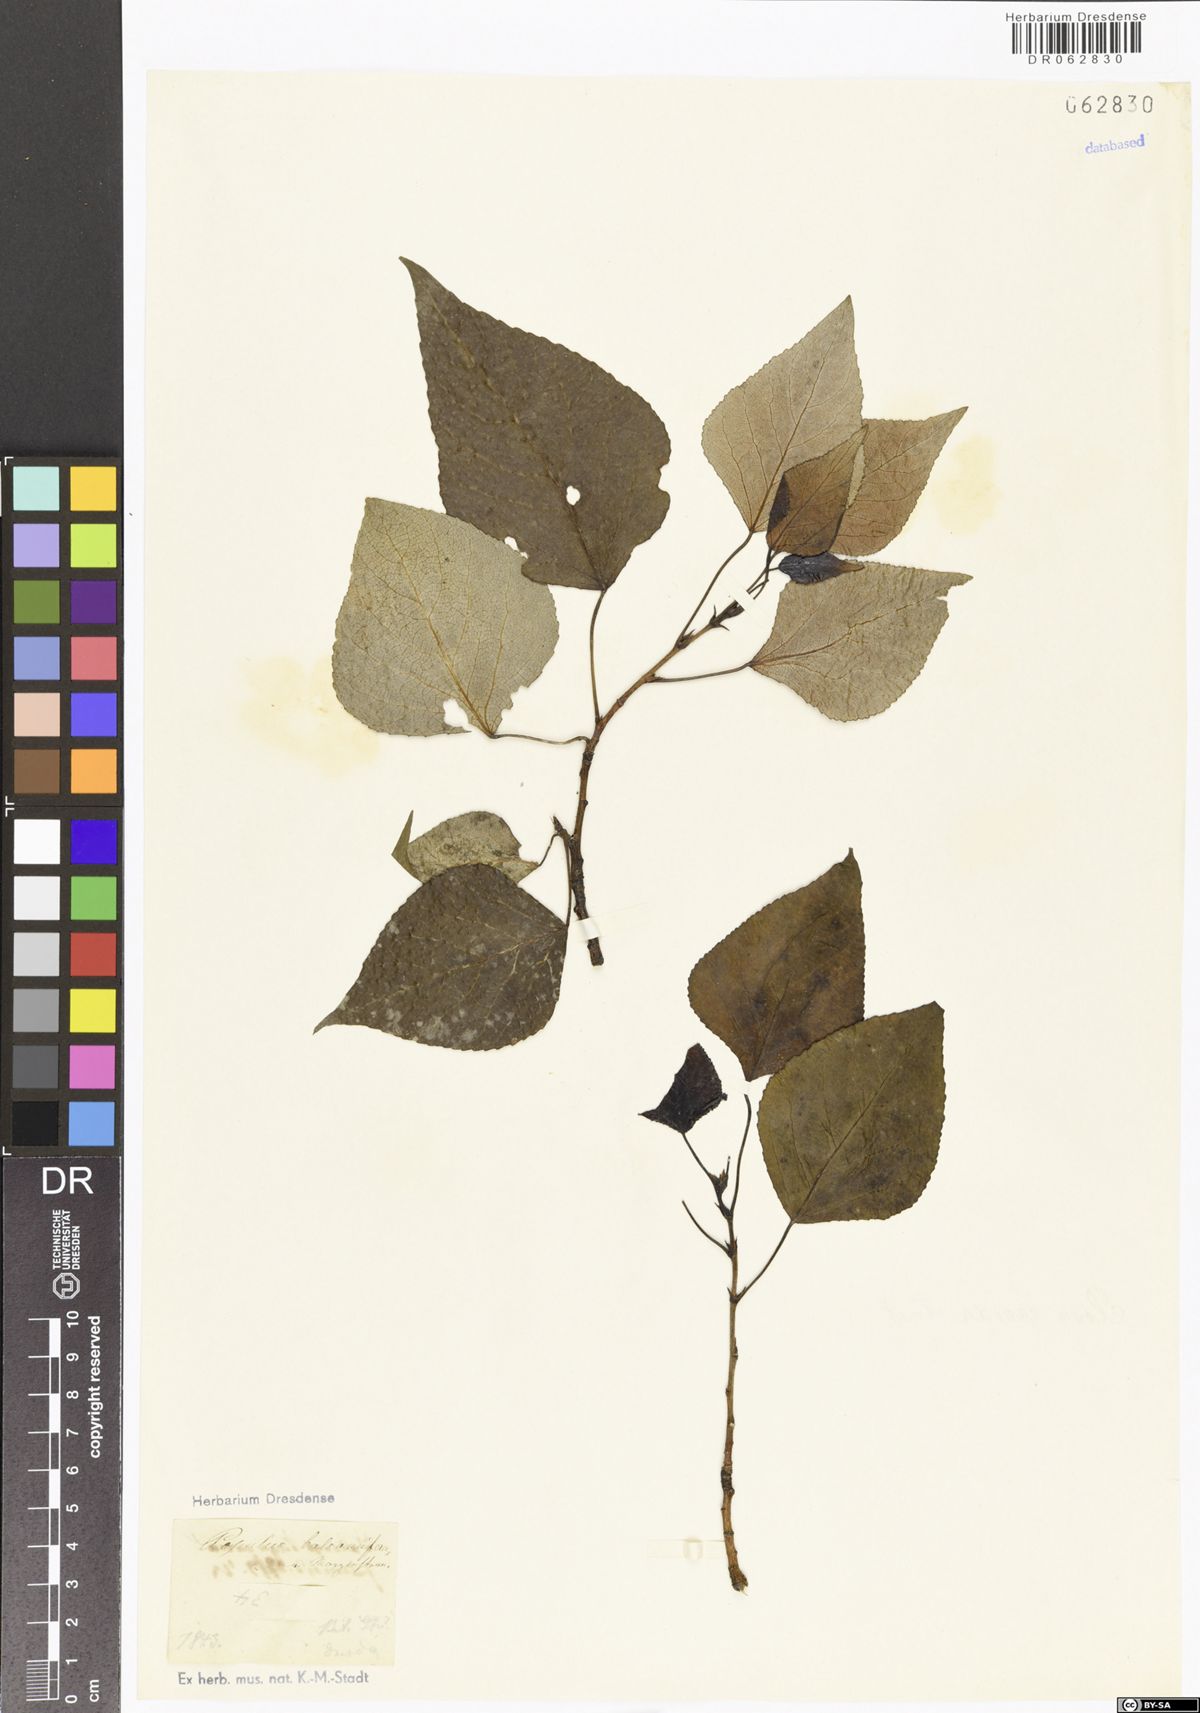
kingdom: Plantae
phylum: Tracheophyta
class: Magnoliopsida
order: Malpighiales
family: Salicaceae
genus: Populus
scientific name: Populus balsamifera
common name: Balsam poplar
